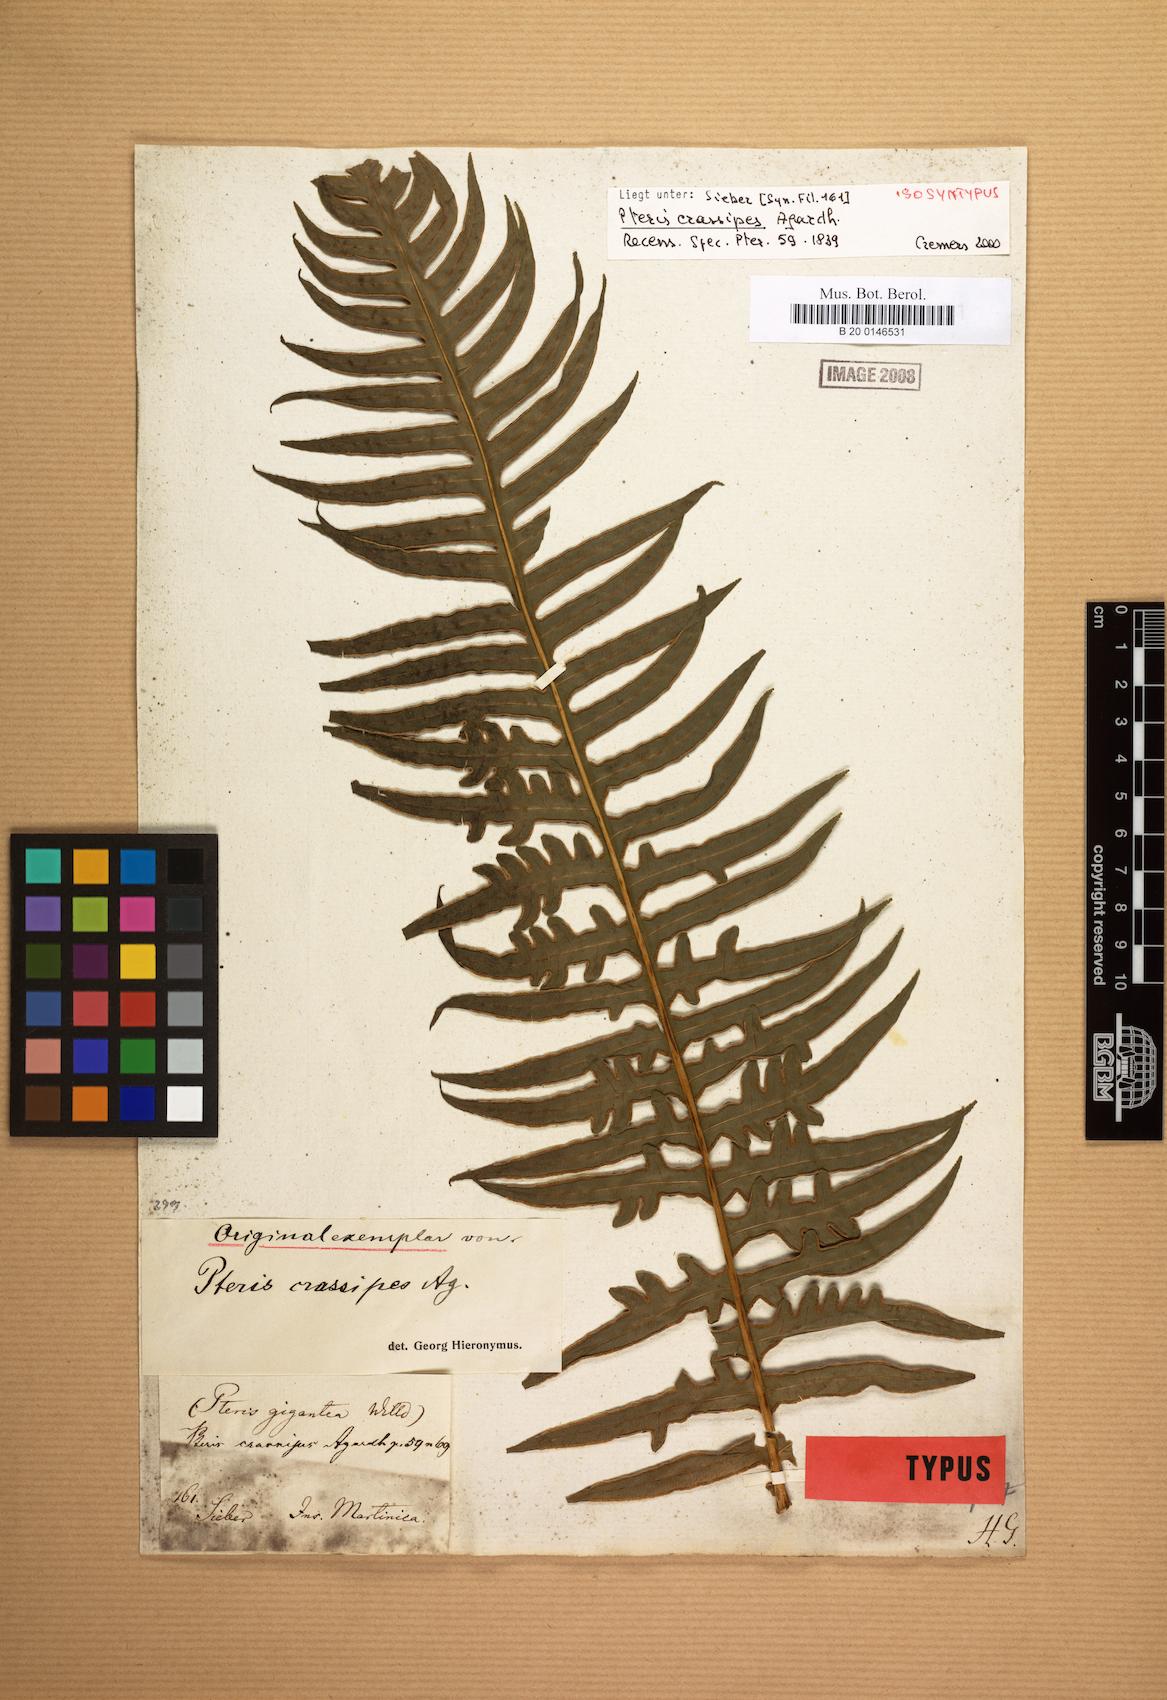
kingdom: Plantae
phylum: Tracheophyta
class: Polypodiopsida
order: Polypodiales
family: Pteridaceae
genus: Pteris
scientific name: Pteris gigantea
